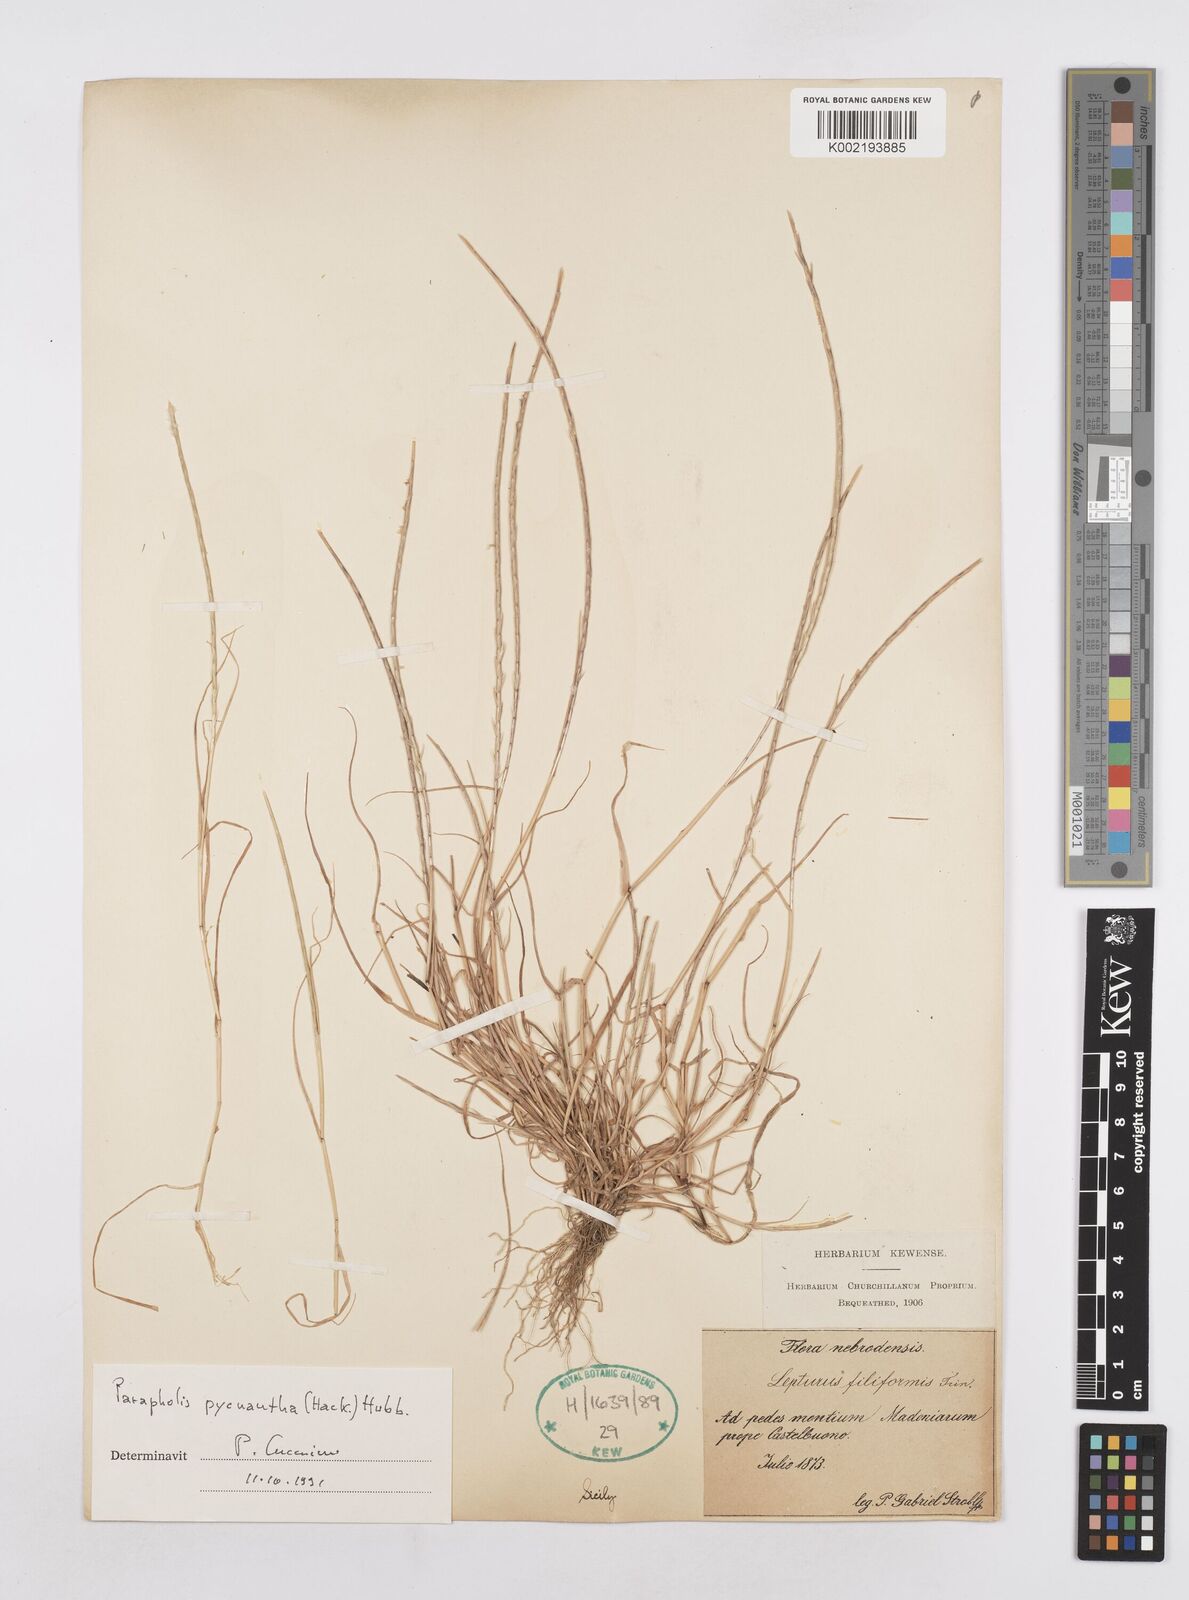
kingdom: Plantae
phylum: Tracheophyta
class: Liliopsida
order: Poales
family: Poaceae
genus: Parapholis
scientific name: Parapholis pycnantha
